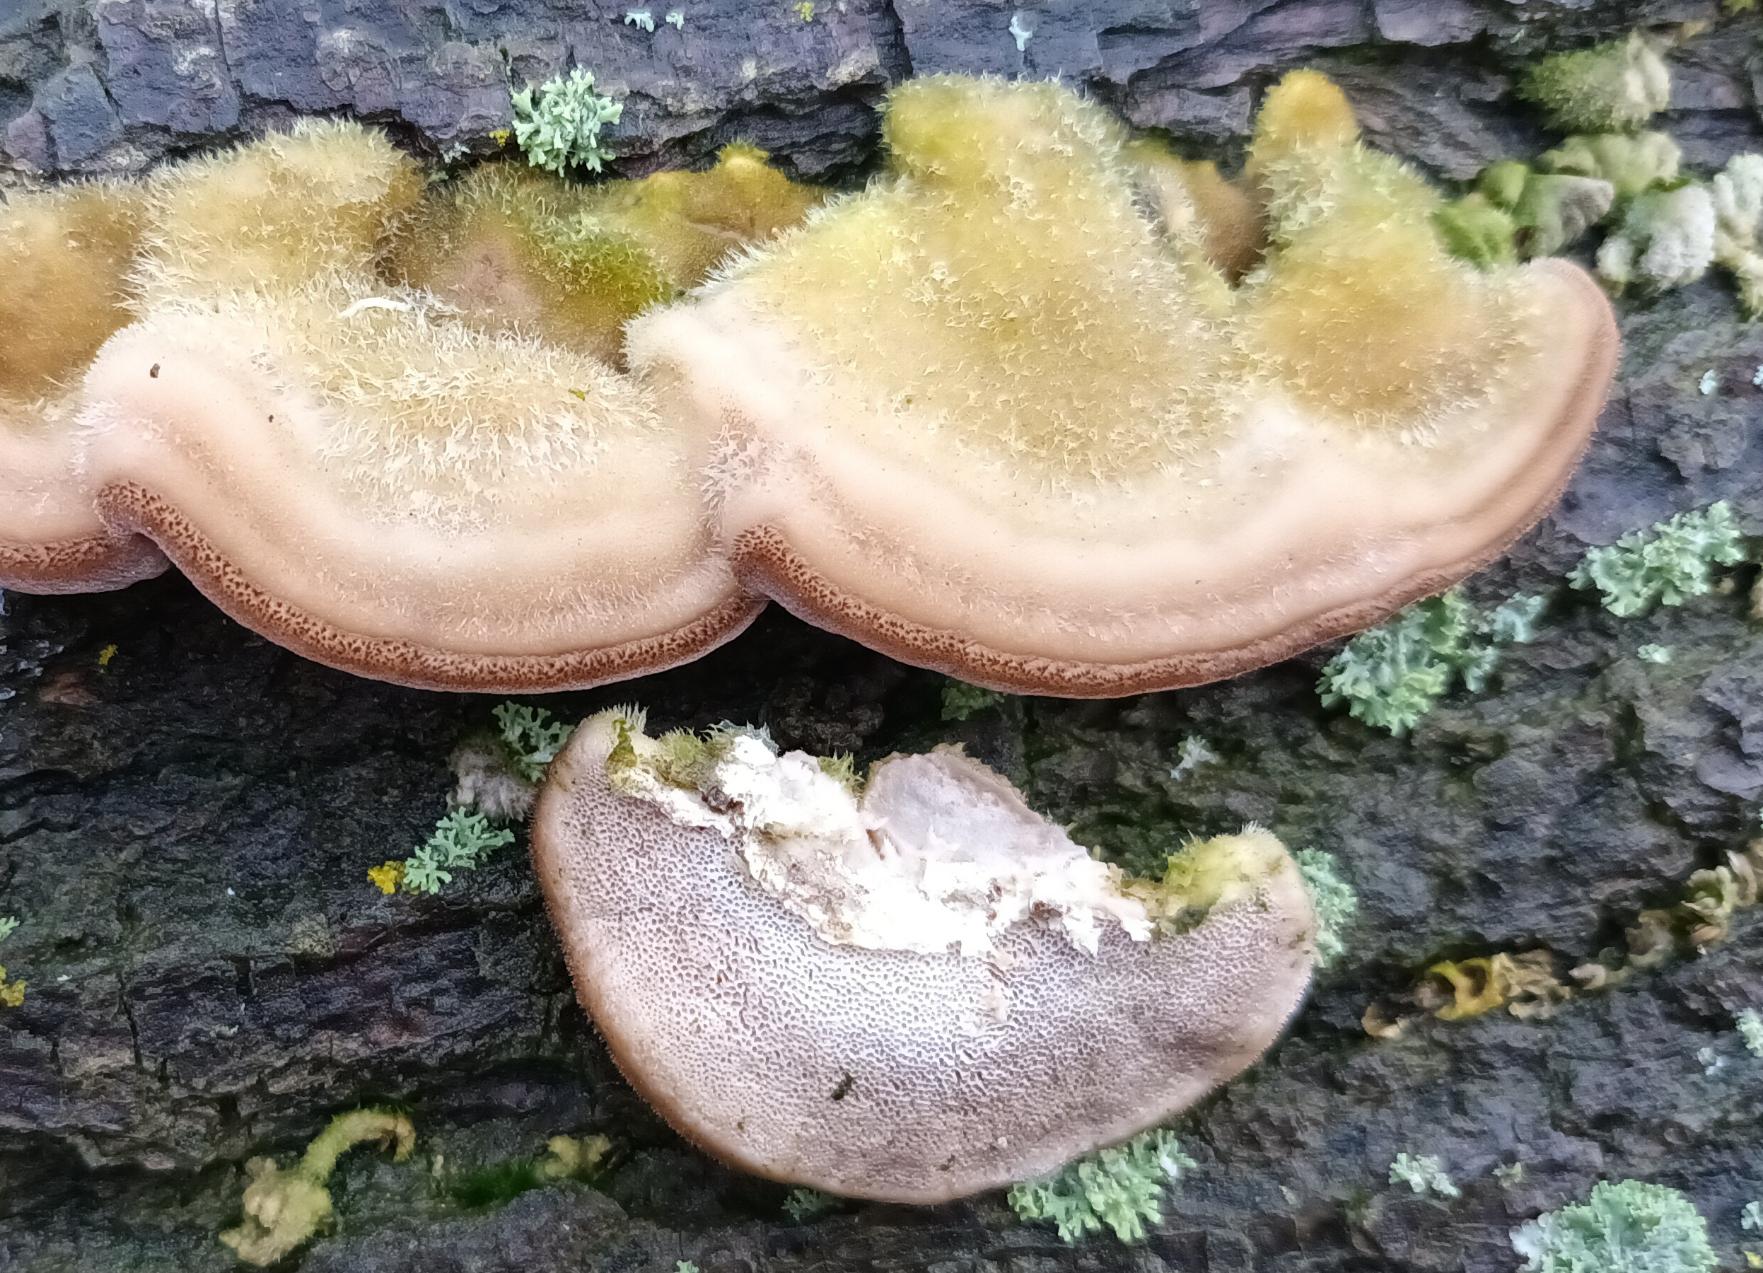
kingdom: Fungi
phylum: Basidiomycota
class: Agaricomycetes
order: Polyporales
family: Polyporaceae
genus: Trametes
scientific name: Trametes hirsuta
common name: Håret læderporesvamp
